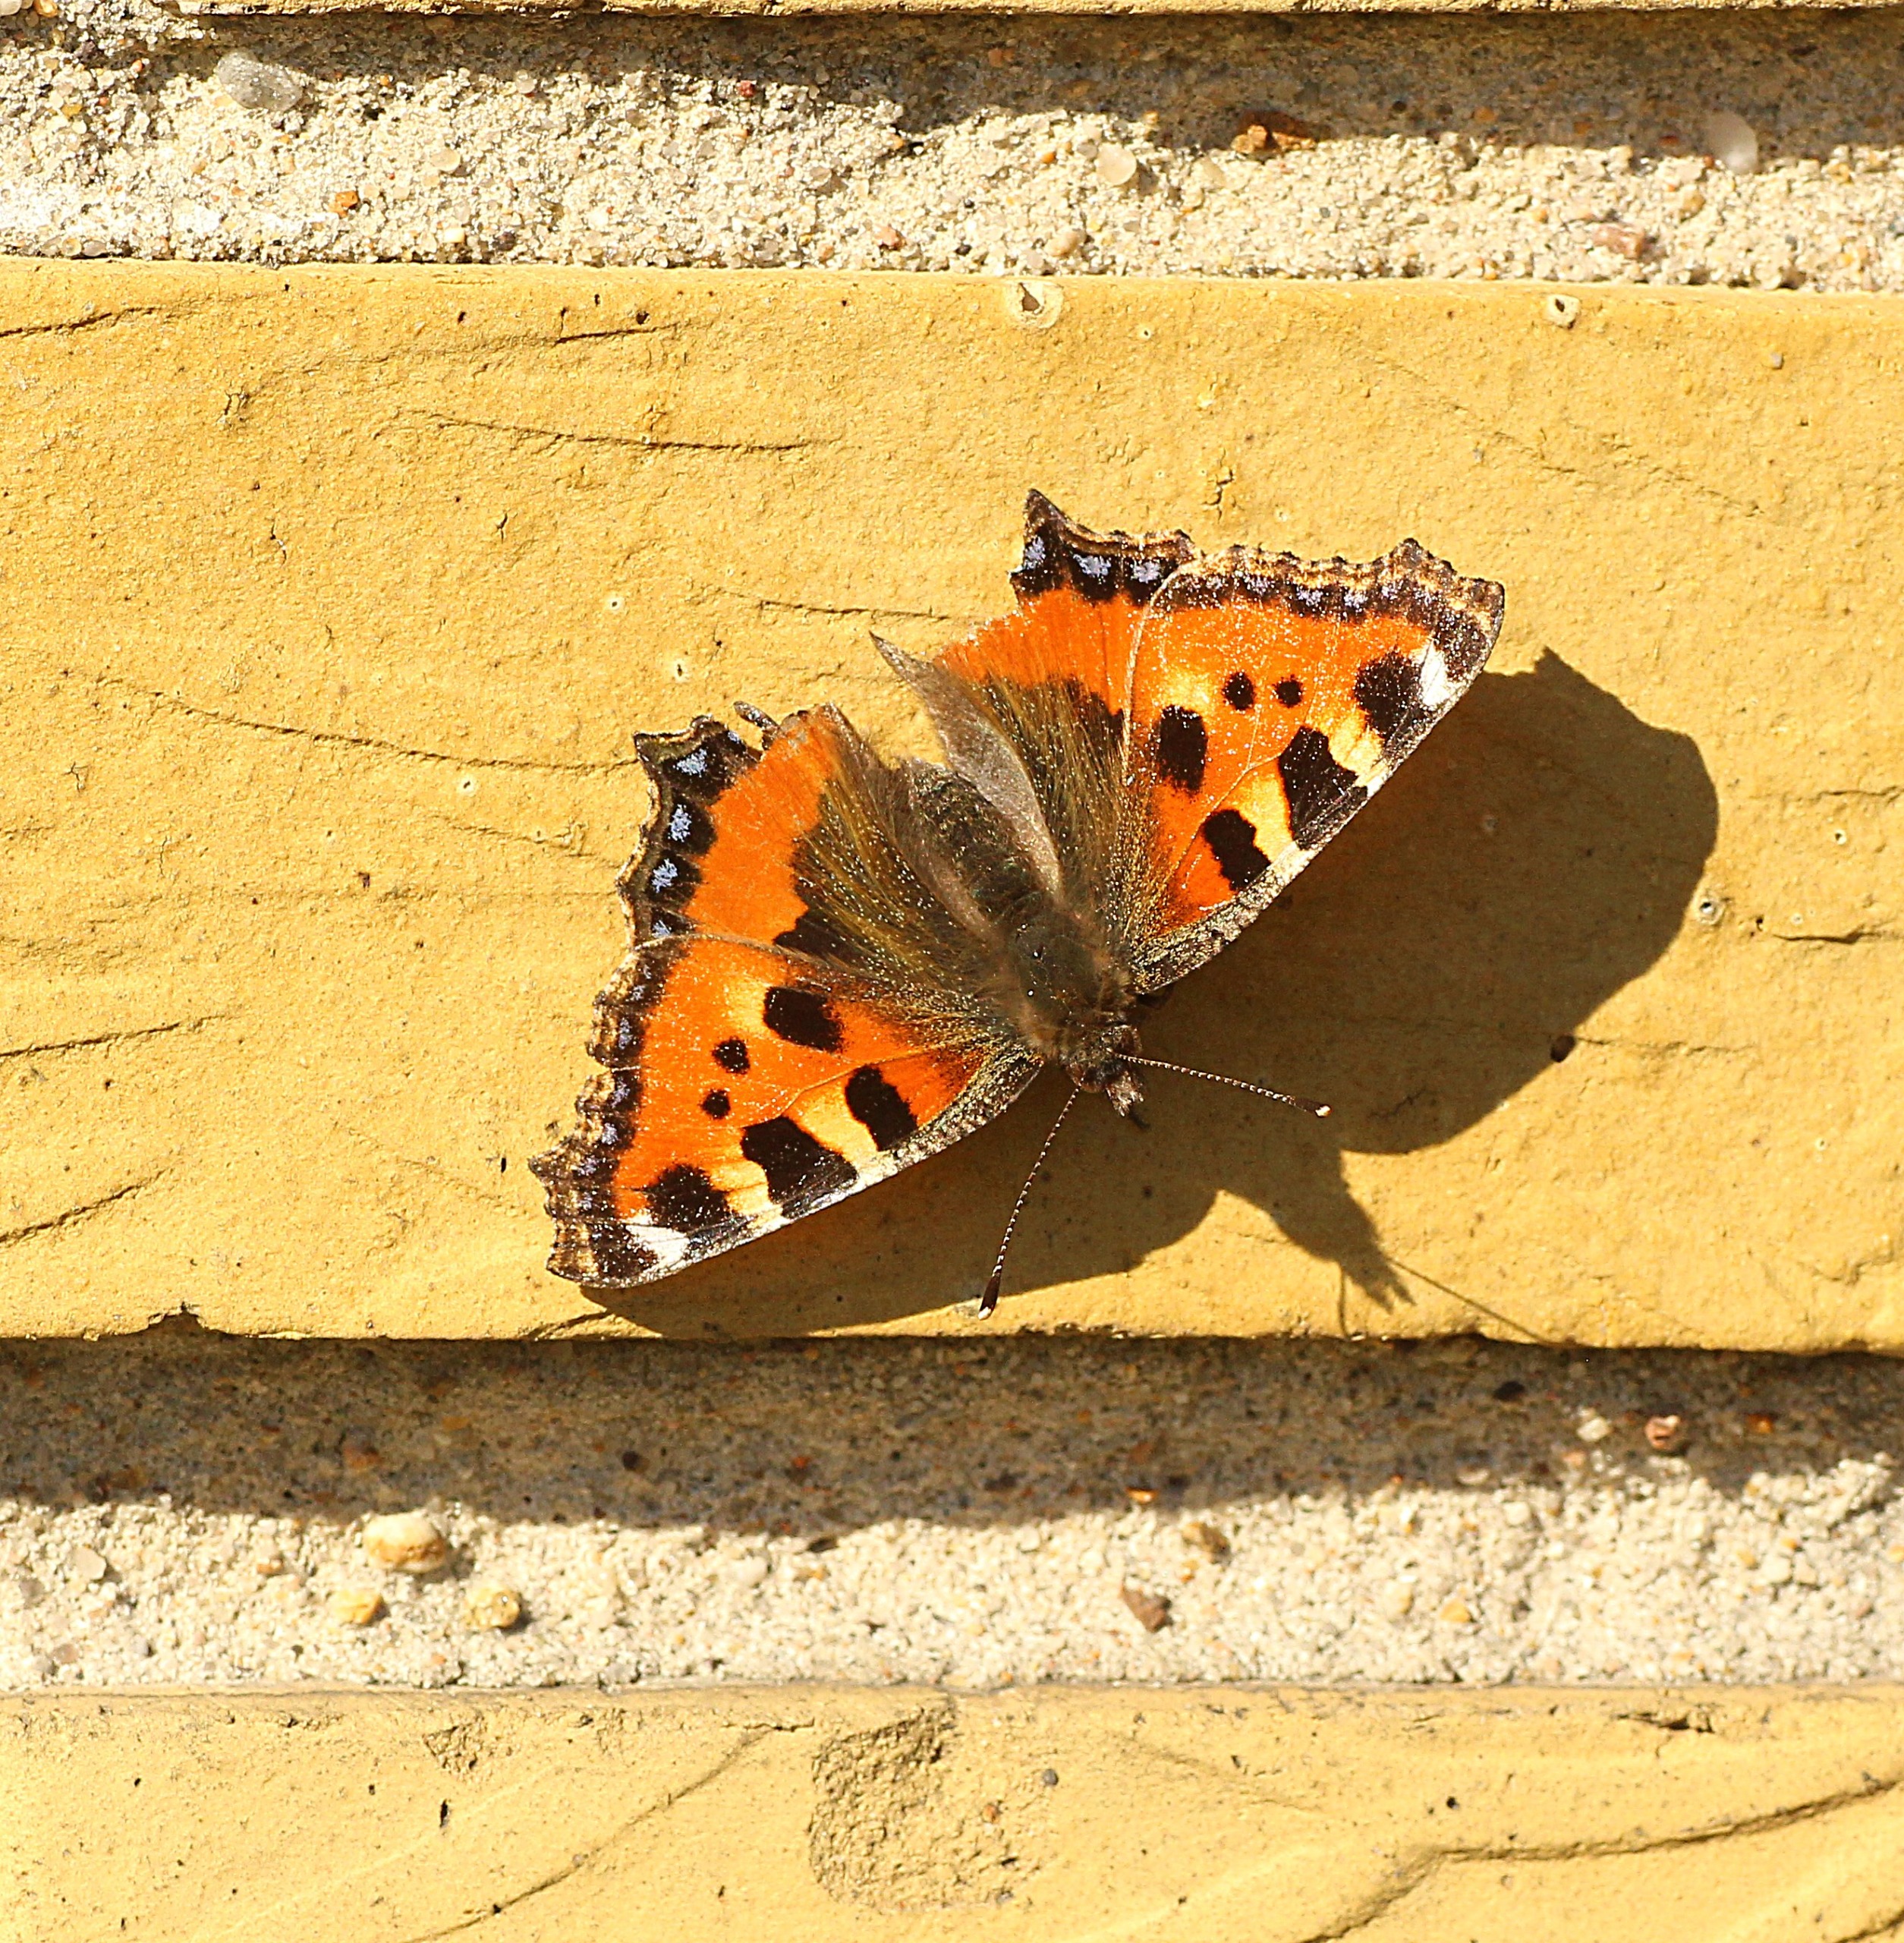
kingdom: Animalia
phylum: Arthropoda
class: Insecta
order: Lepidoptera
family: Nymphalidae
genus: Aglais
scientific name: Aglais urticae
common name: Nældens takvinge
